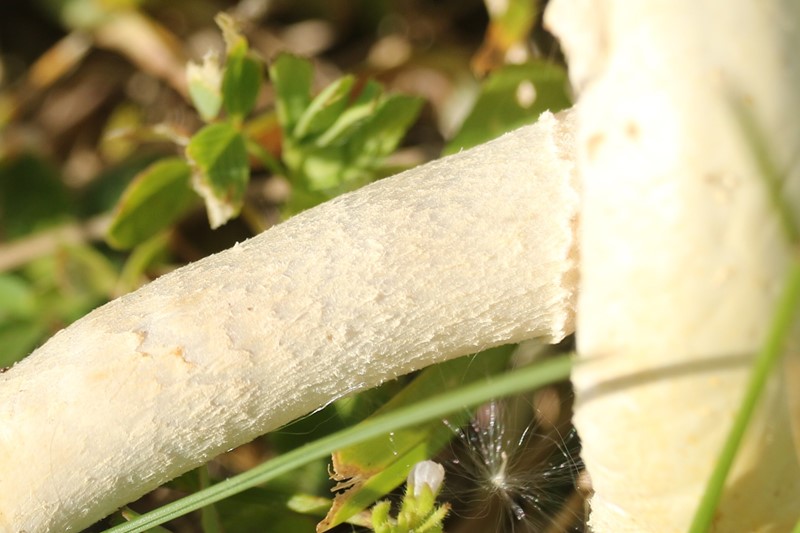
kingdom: Fungi
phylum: Basidiomycota
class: Agaricomycetes
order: Agaricales
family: Strophariaceae
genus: Agrocybe
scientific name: Agrocybe
